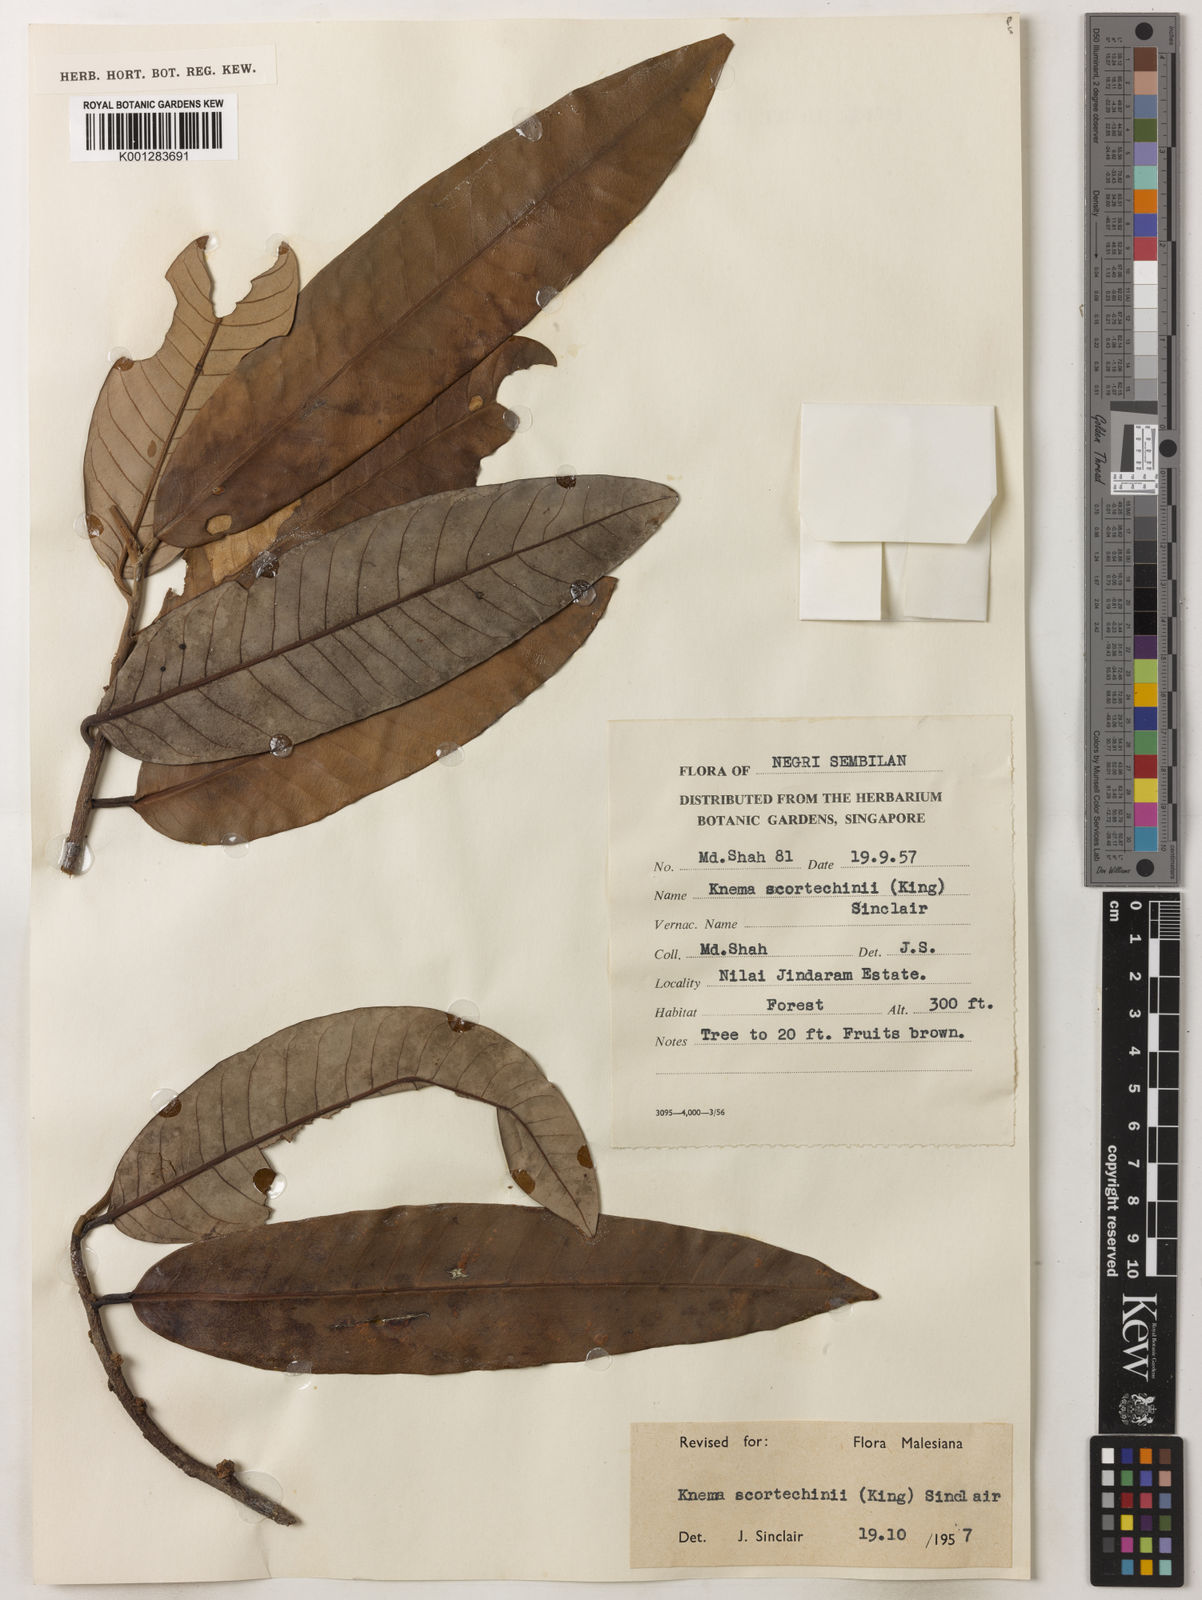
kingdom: Plantae
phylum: Tracheophyta
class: Magnoliopsida
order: Magnoliales
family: Myristicaceae
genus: Knema
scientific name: Knema scortechinii
